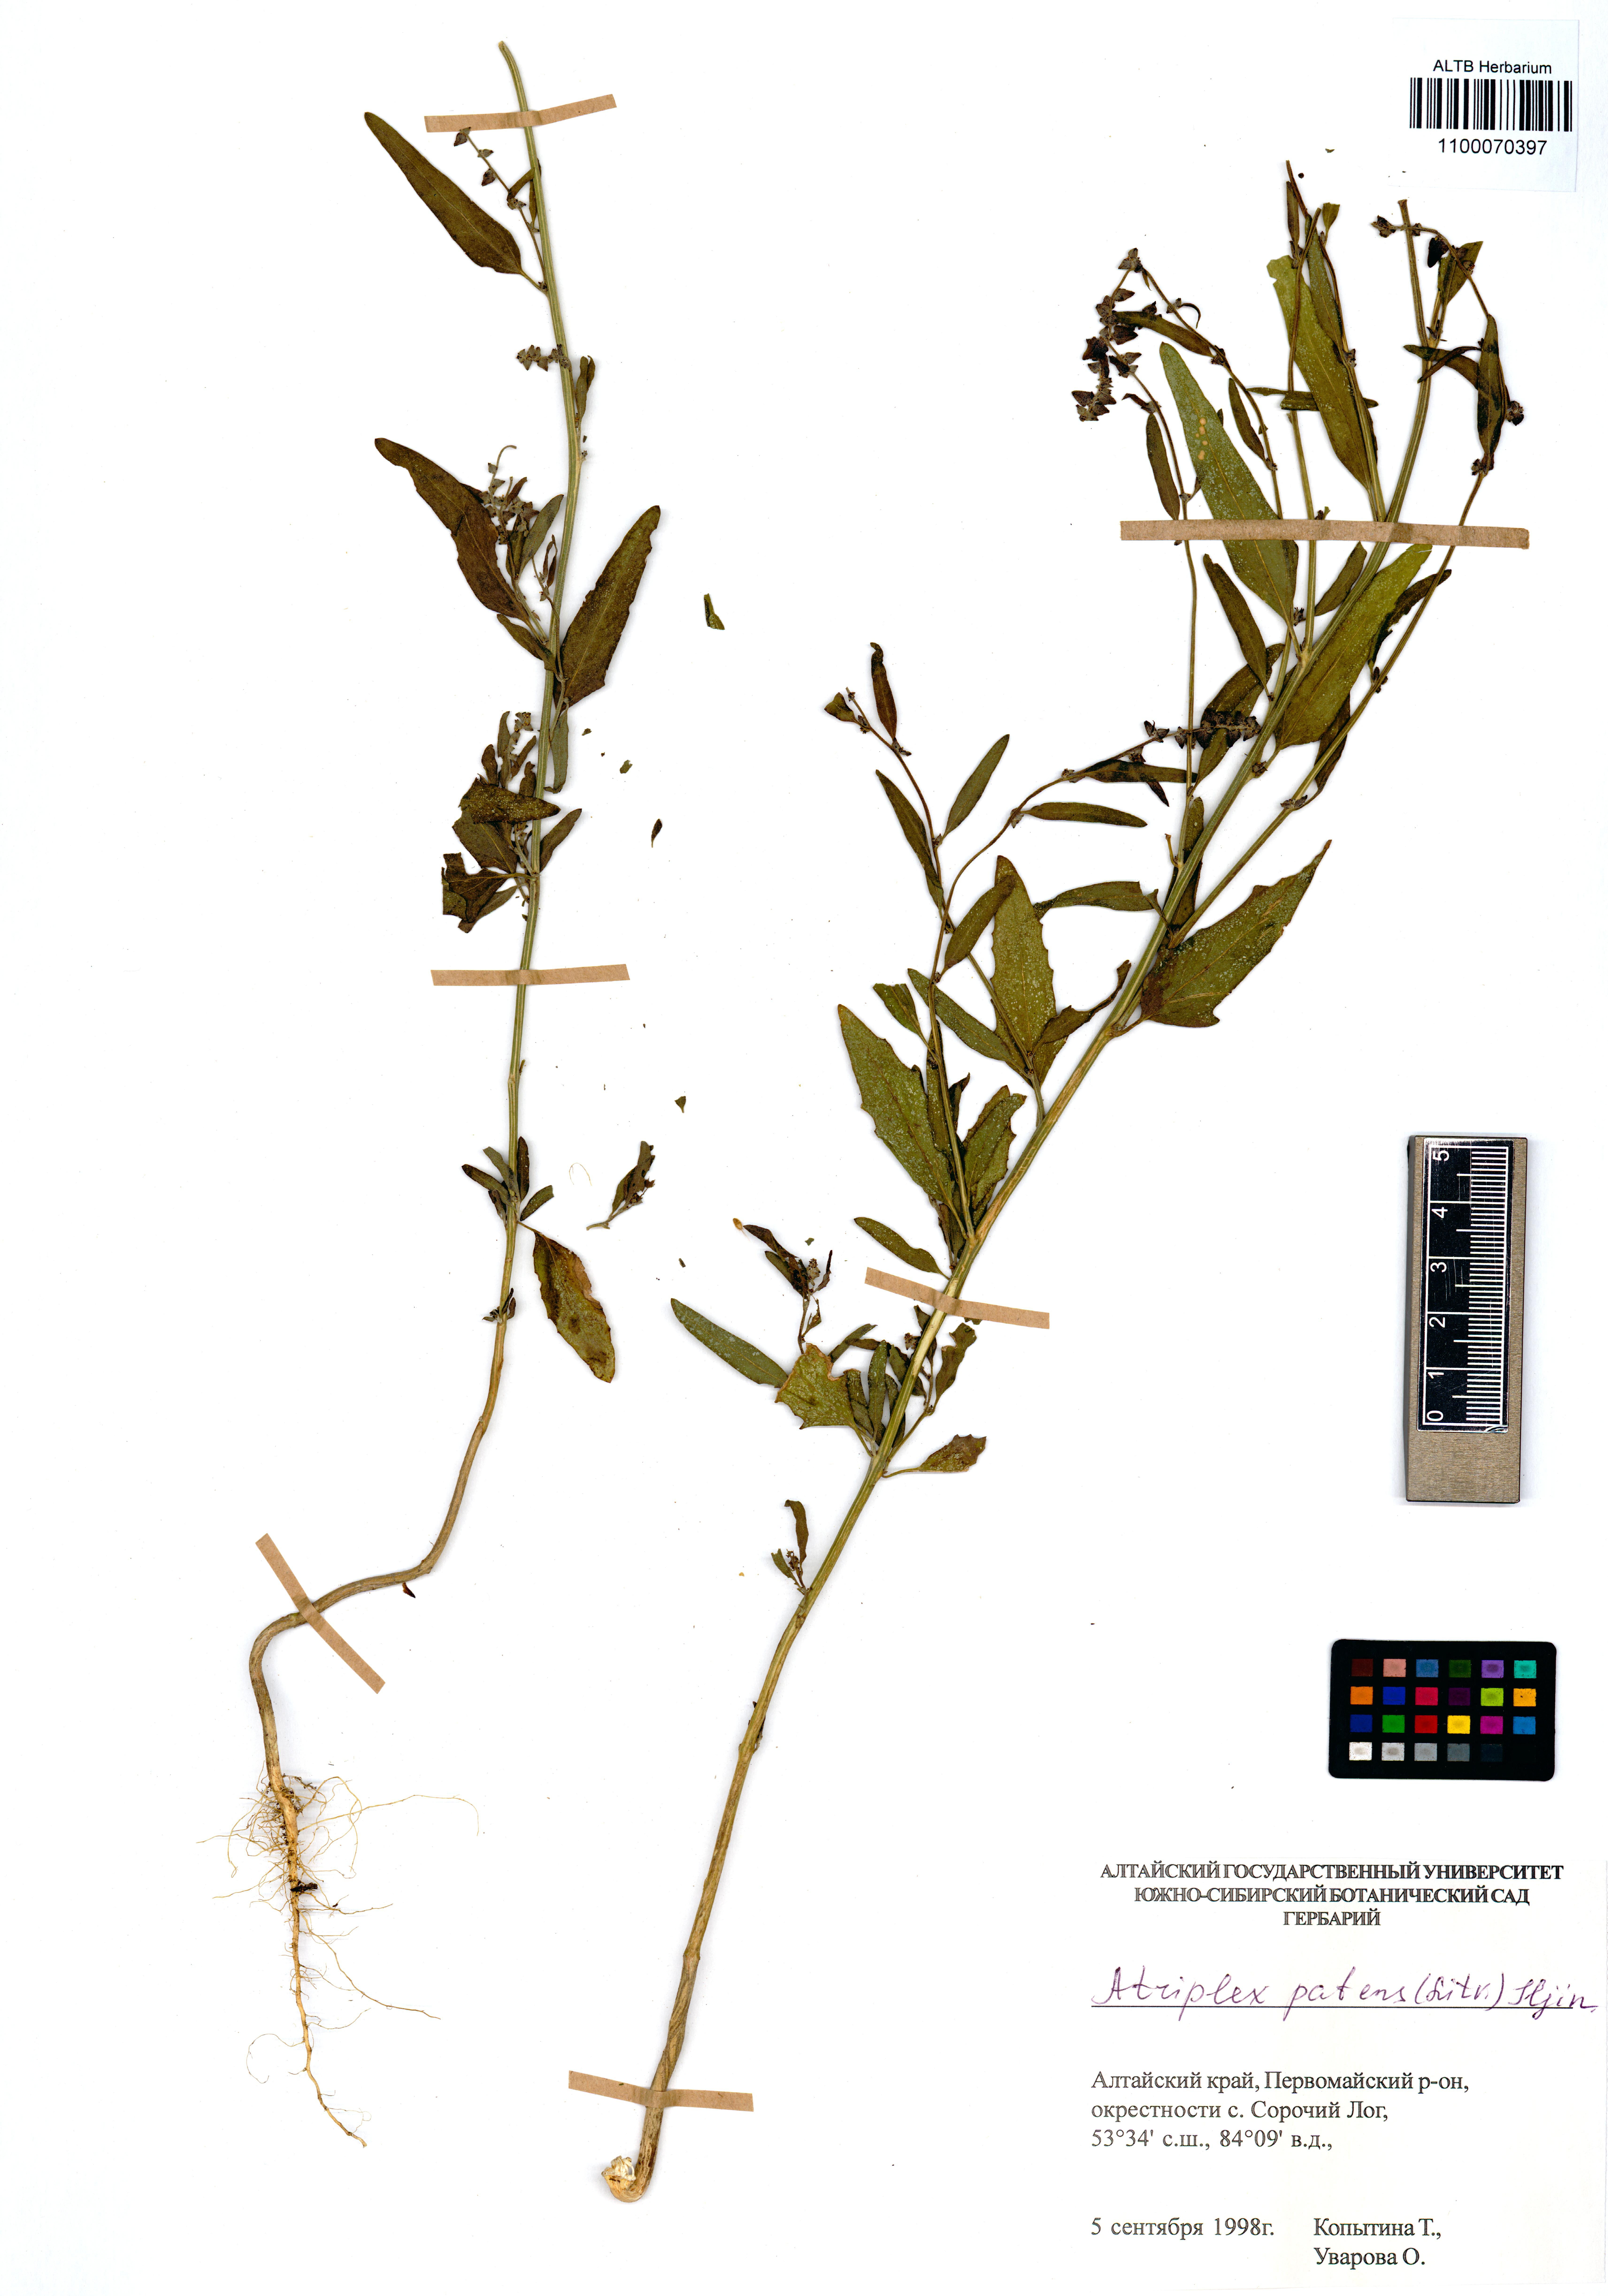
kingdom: Plantae
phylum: Tracheophyta
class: Magnoliopsida
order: Caryophyllales
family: Amaranthaceae
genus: Atriplex
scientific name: Atriplex patens
